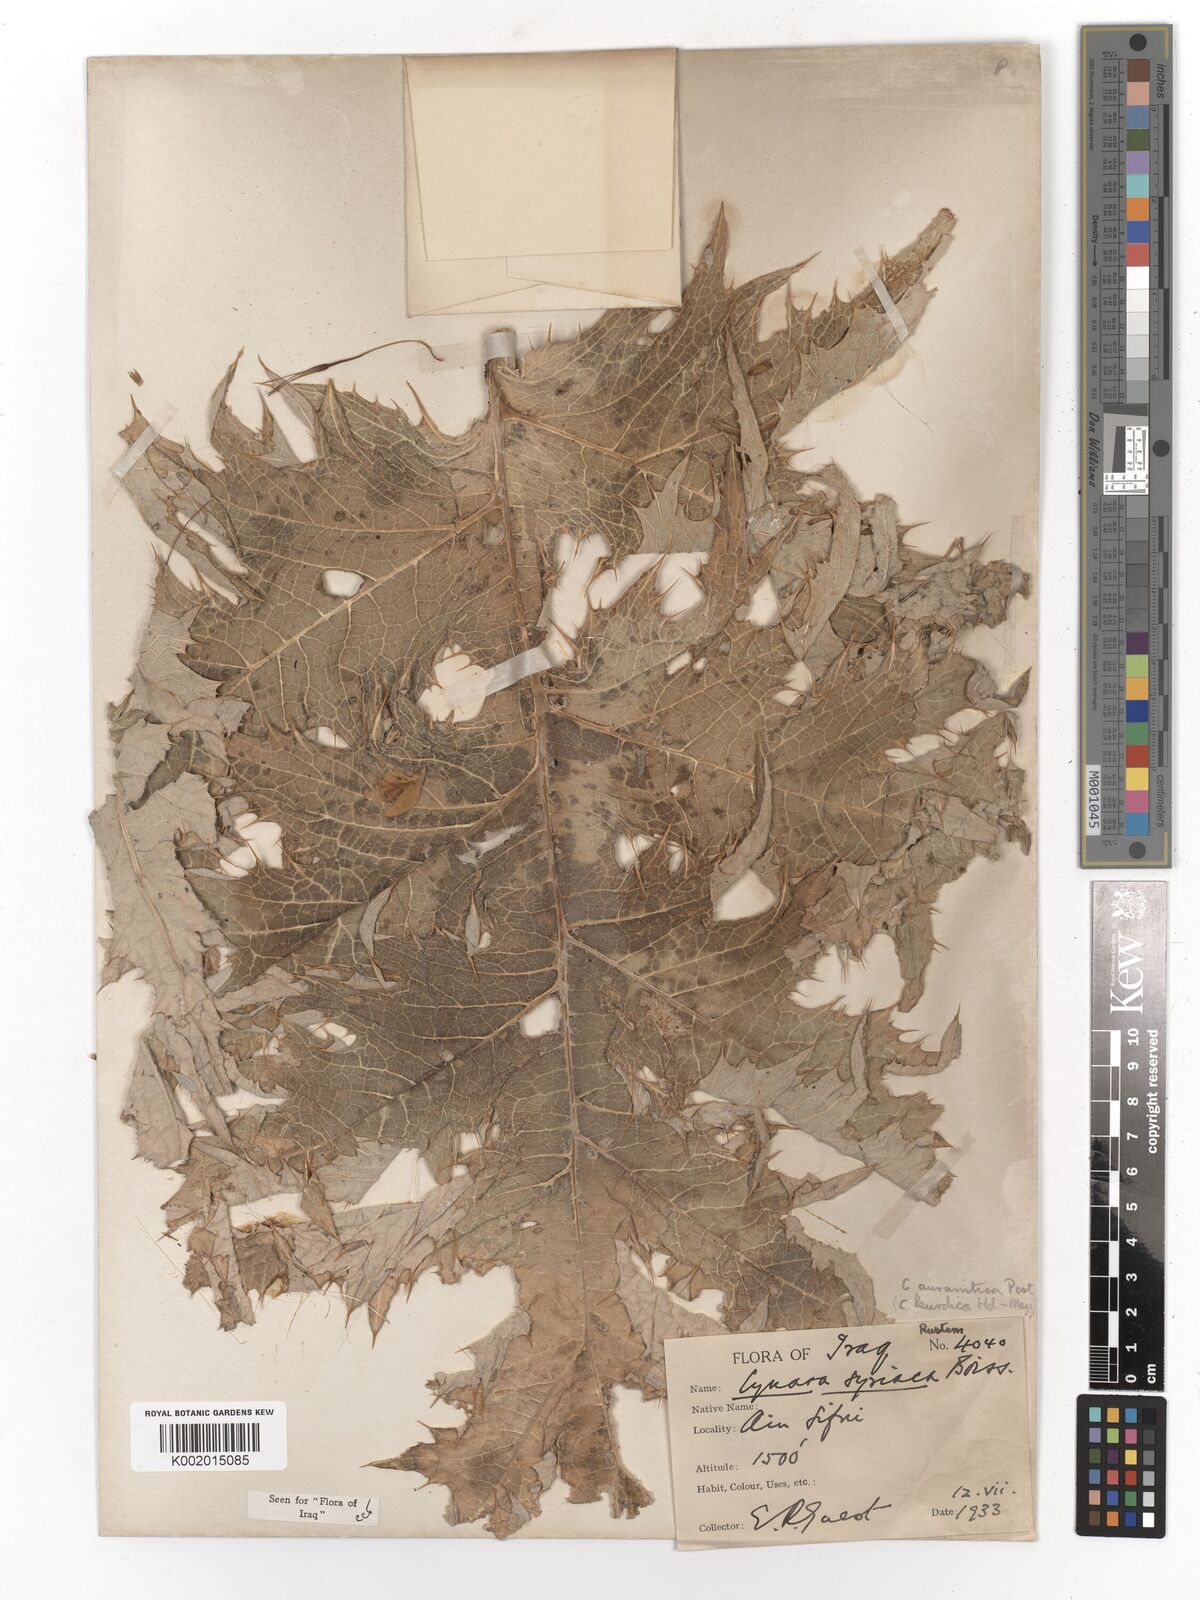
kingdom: Plantae
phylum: Tracheophyta
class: Magnoliopsida
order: Asterales
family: Asteraceae
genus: Cynara
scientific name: Cynara syriaca
